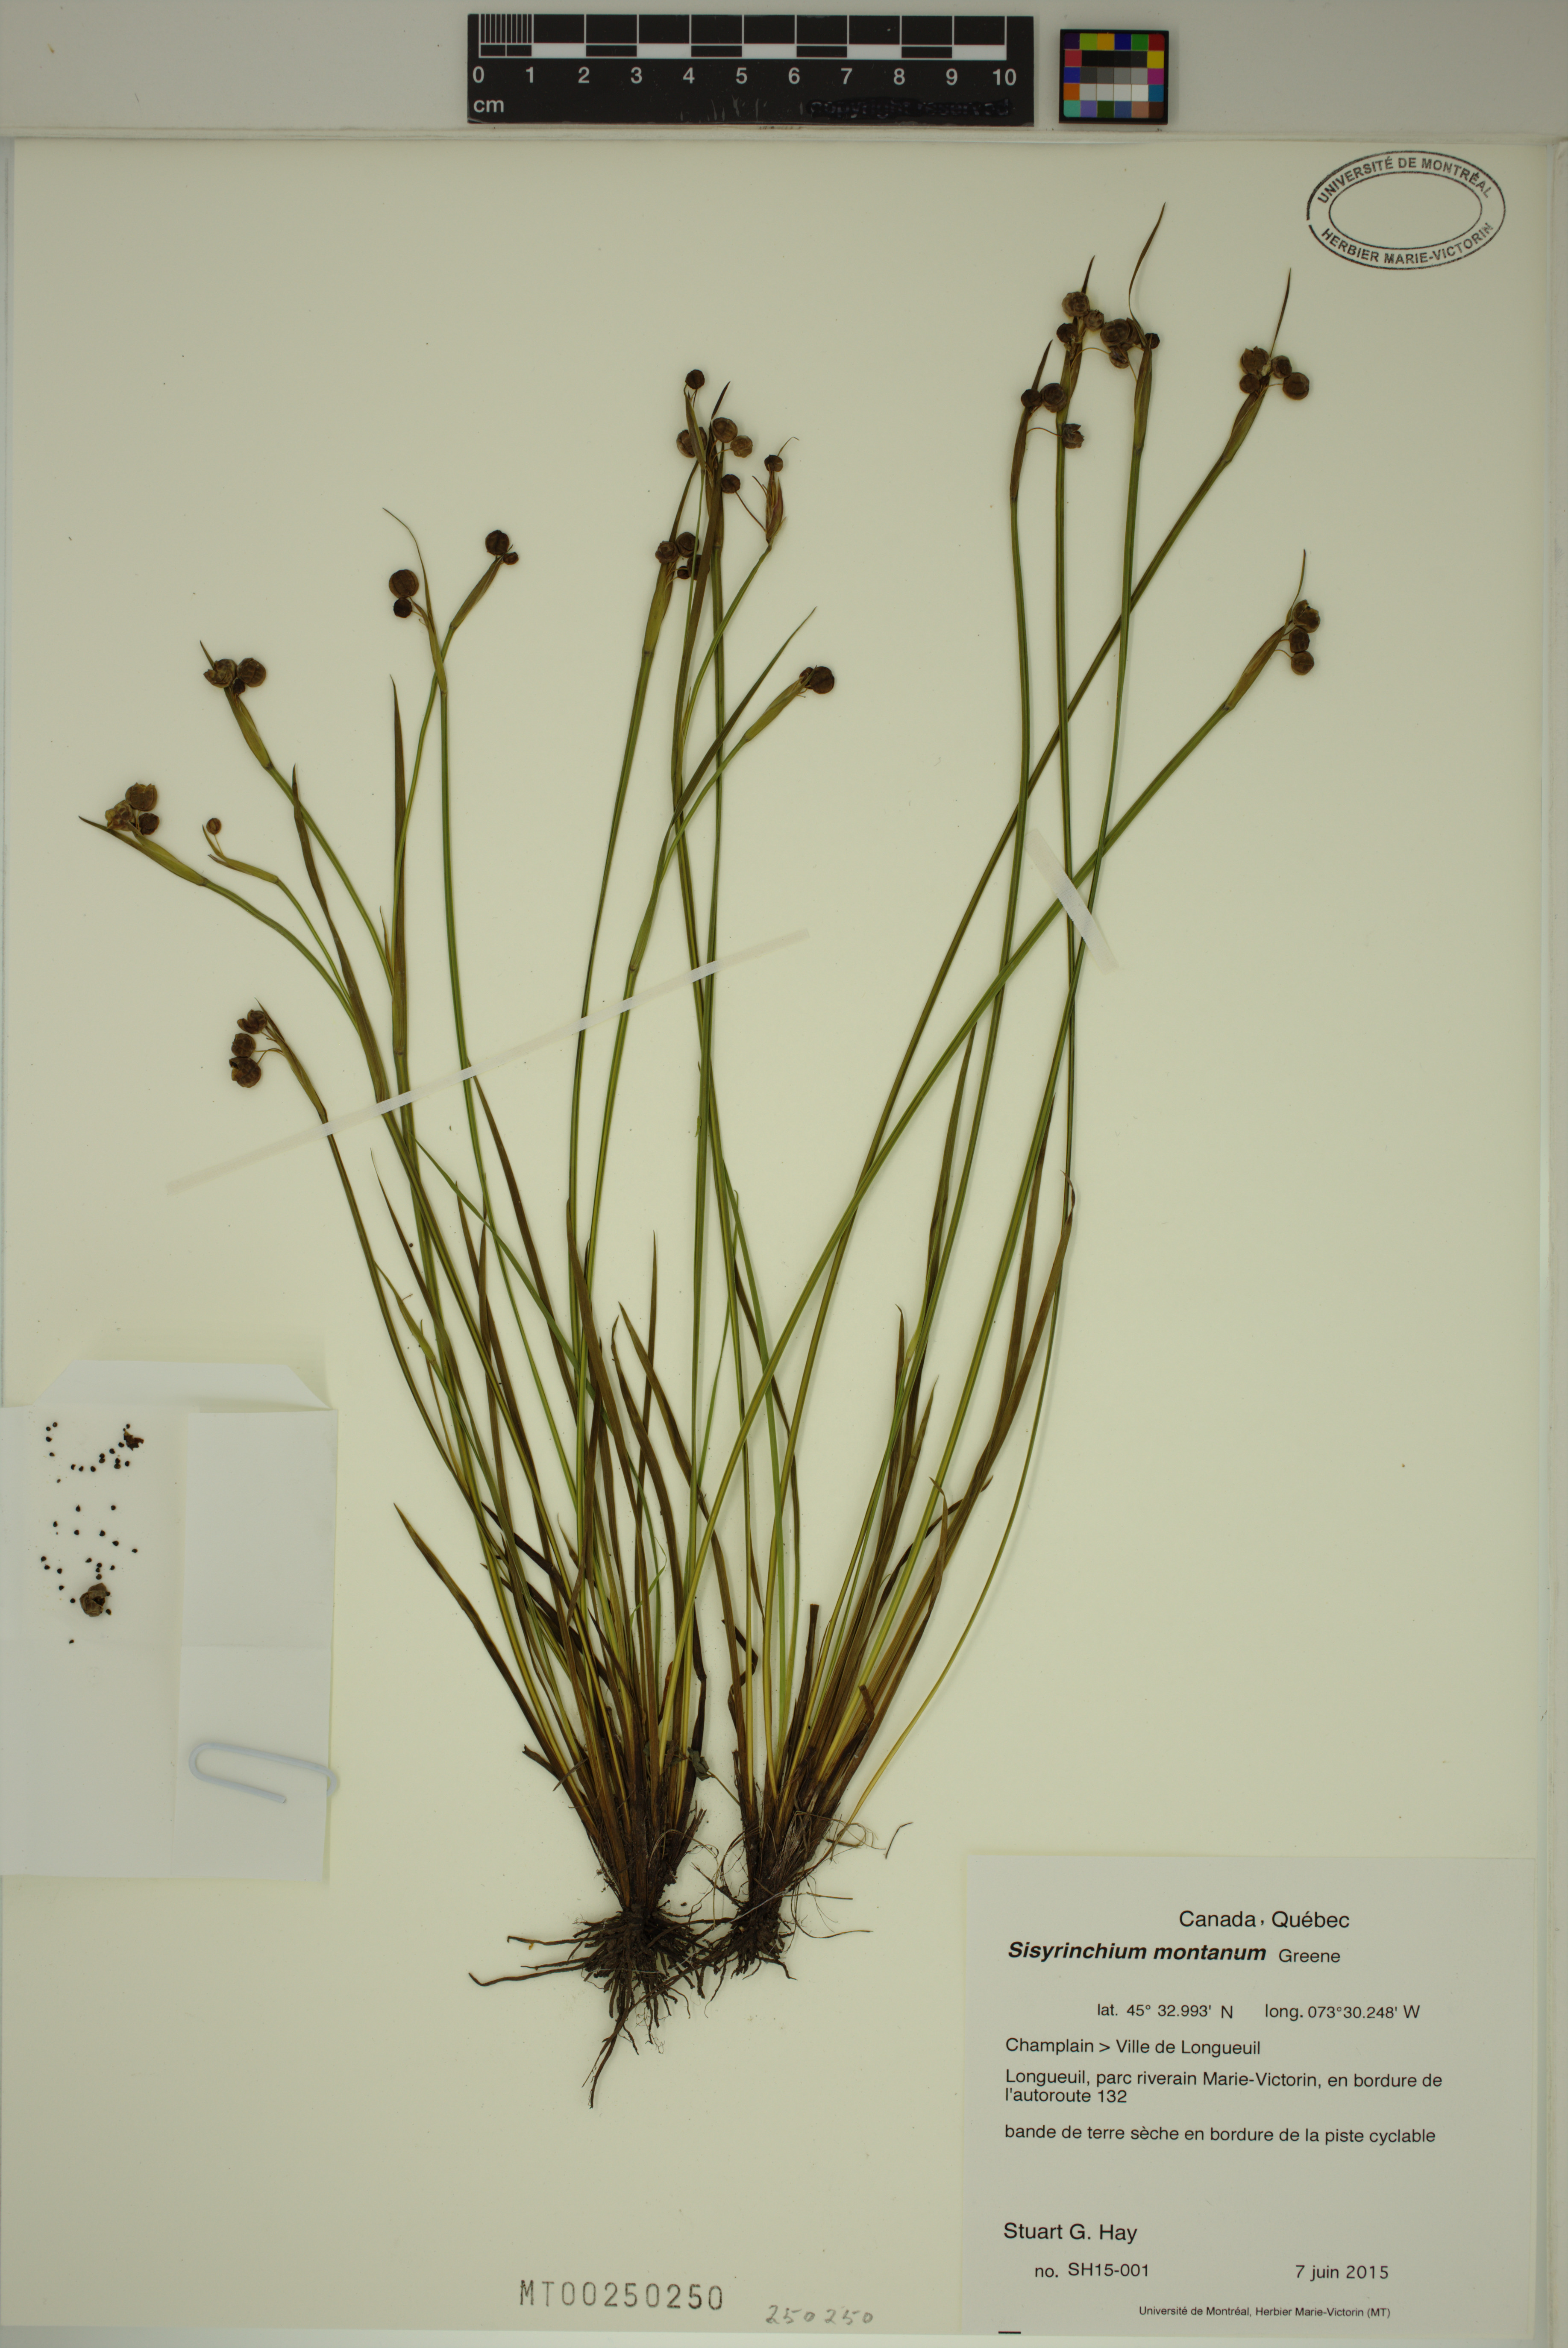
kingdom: Plantae
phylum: Tracheophyta
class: Liliopsida
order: Asparagales
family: Iridaceae
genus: Sisyrinchium
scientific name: Sisyrinchium montanum
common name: American blue-eyed-grass
